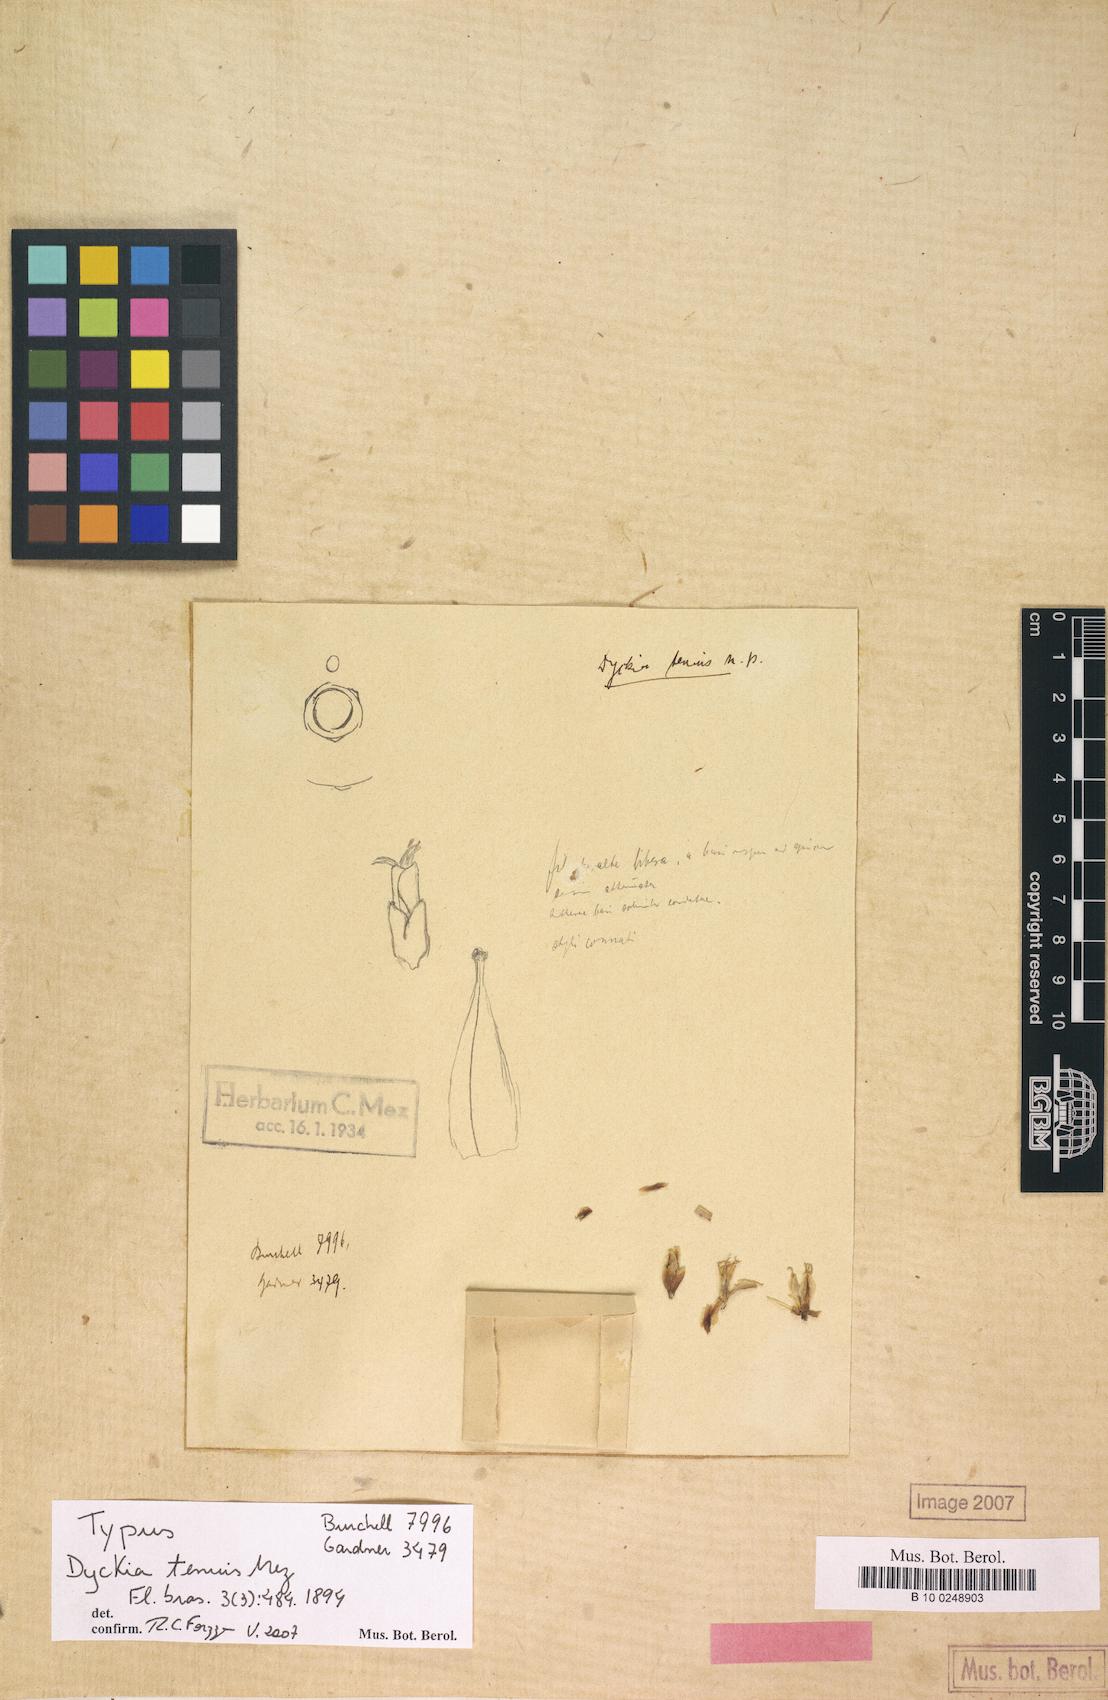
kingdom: Plantae
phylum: Tracheophyta
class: Liliopsida
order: Poales
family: Bromeliaceae
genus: Dyckia
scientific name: Dyckia tenuis
